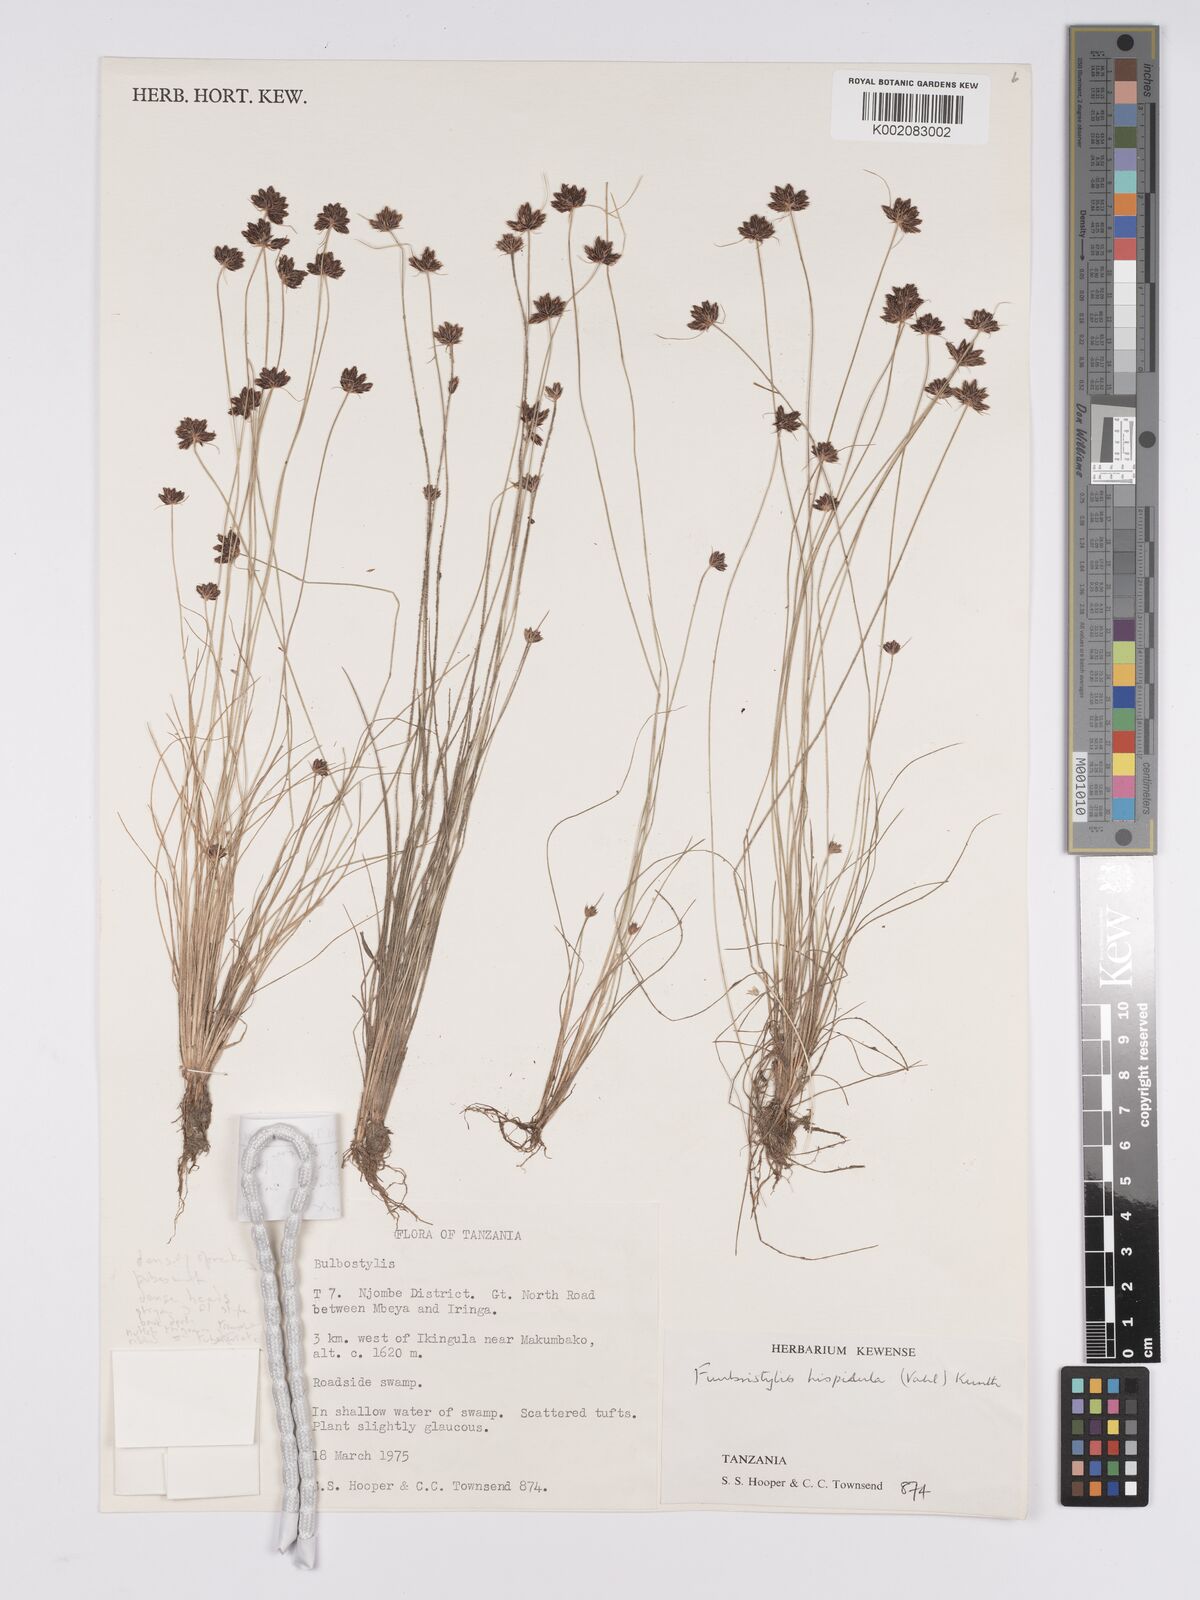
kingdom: Plantae
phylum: Tracheophyta
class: Liliopsida
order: Poales
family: Cyperaceae
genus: Bulbostylis
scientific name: Bulbostylis hispidula
